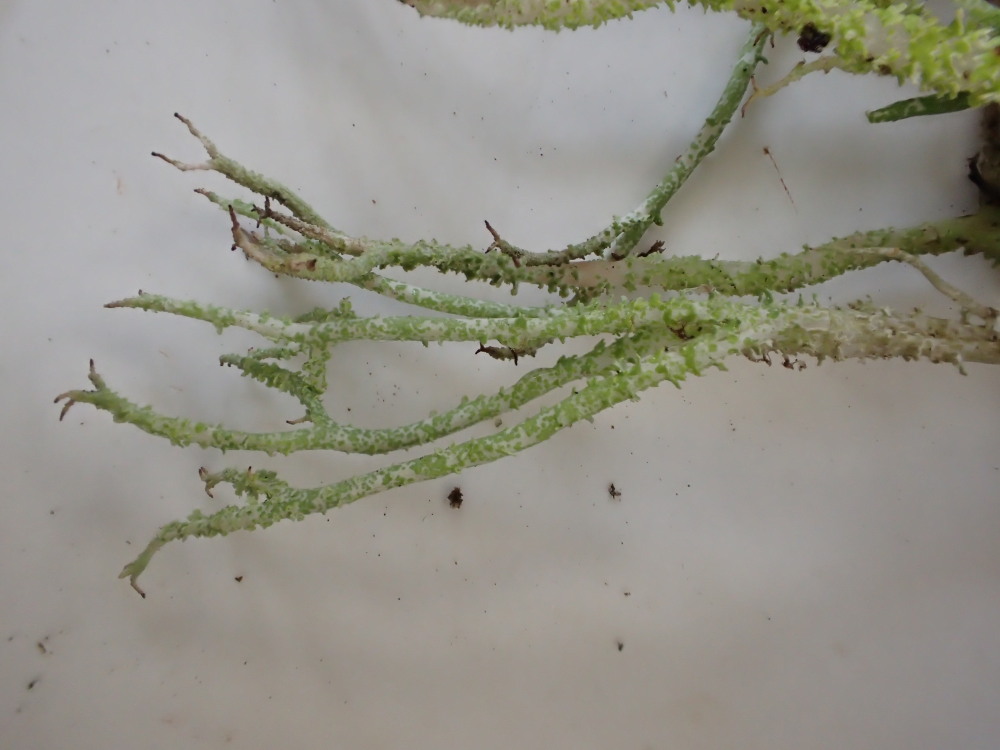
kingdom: Fungi
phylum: Ascomycota
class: Lecanoromycetes
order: Lecanorales
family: Cladoniaceae
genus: Cladonia
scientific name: Cladonia scabriuscula
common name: ru bægerlav
